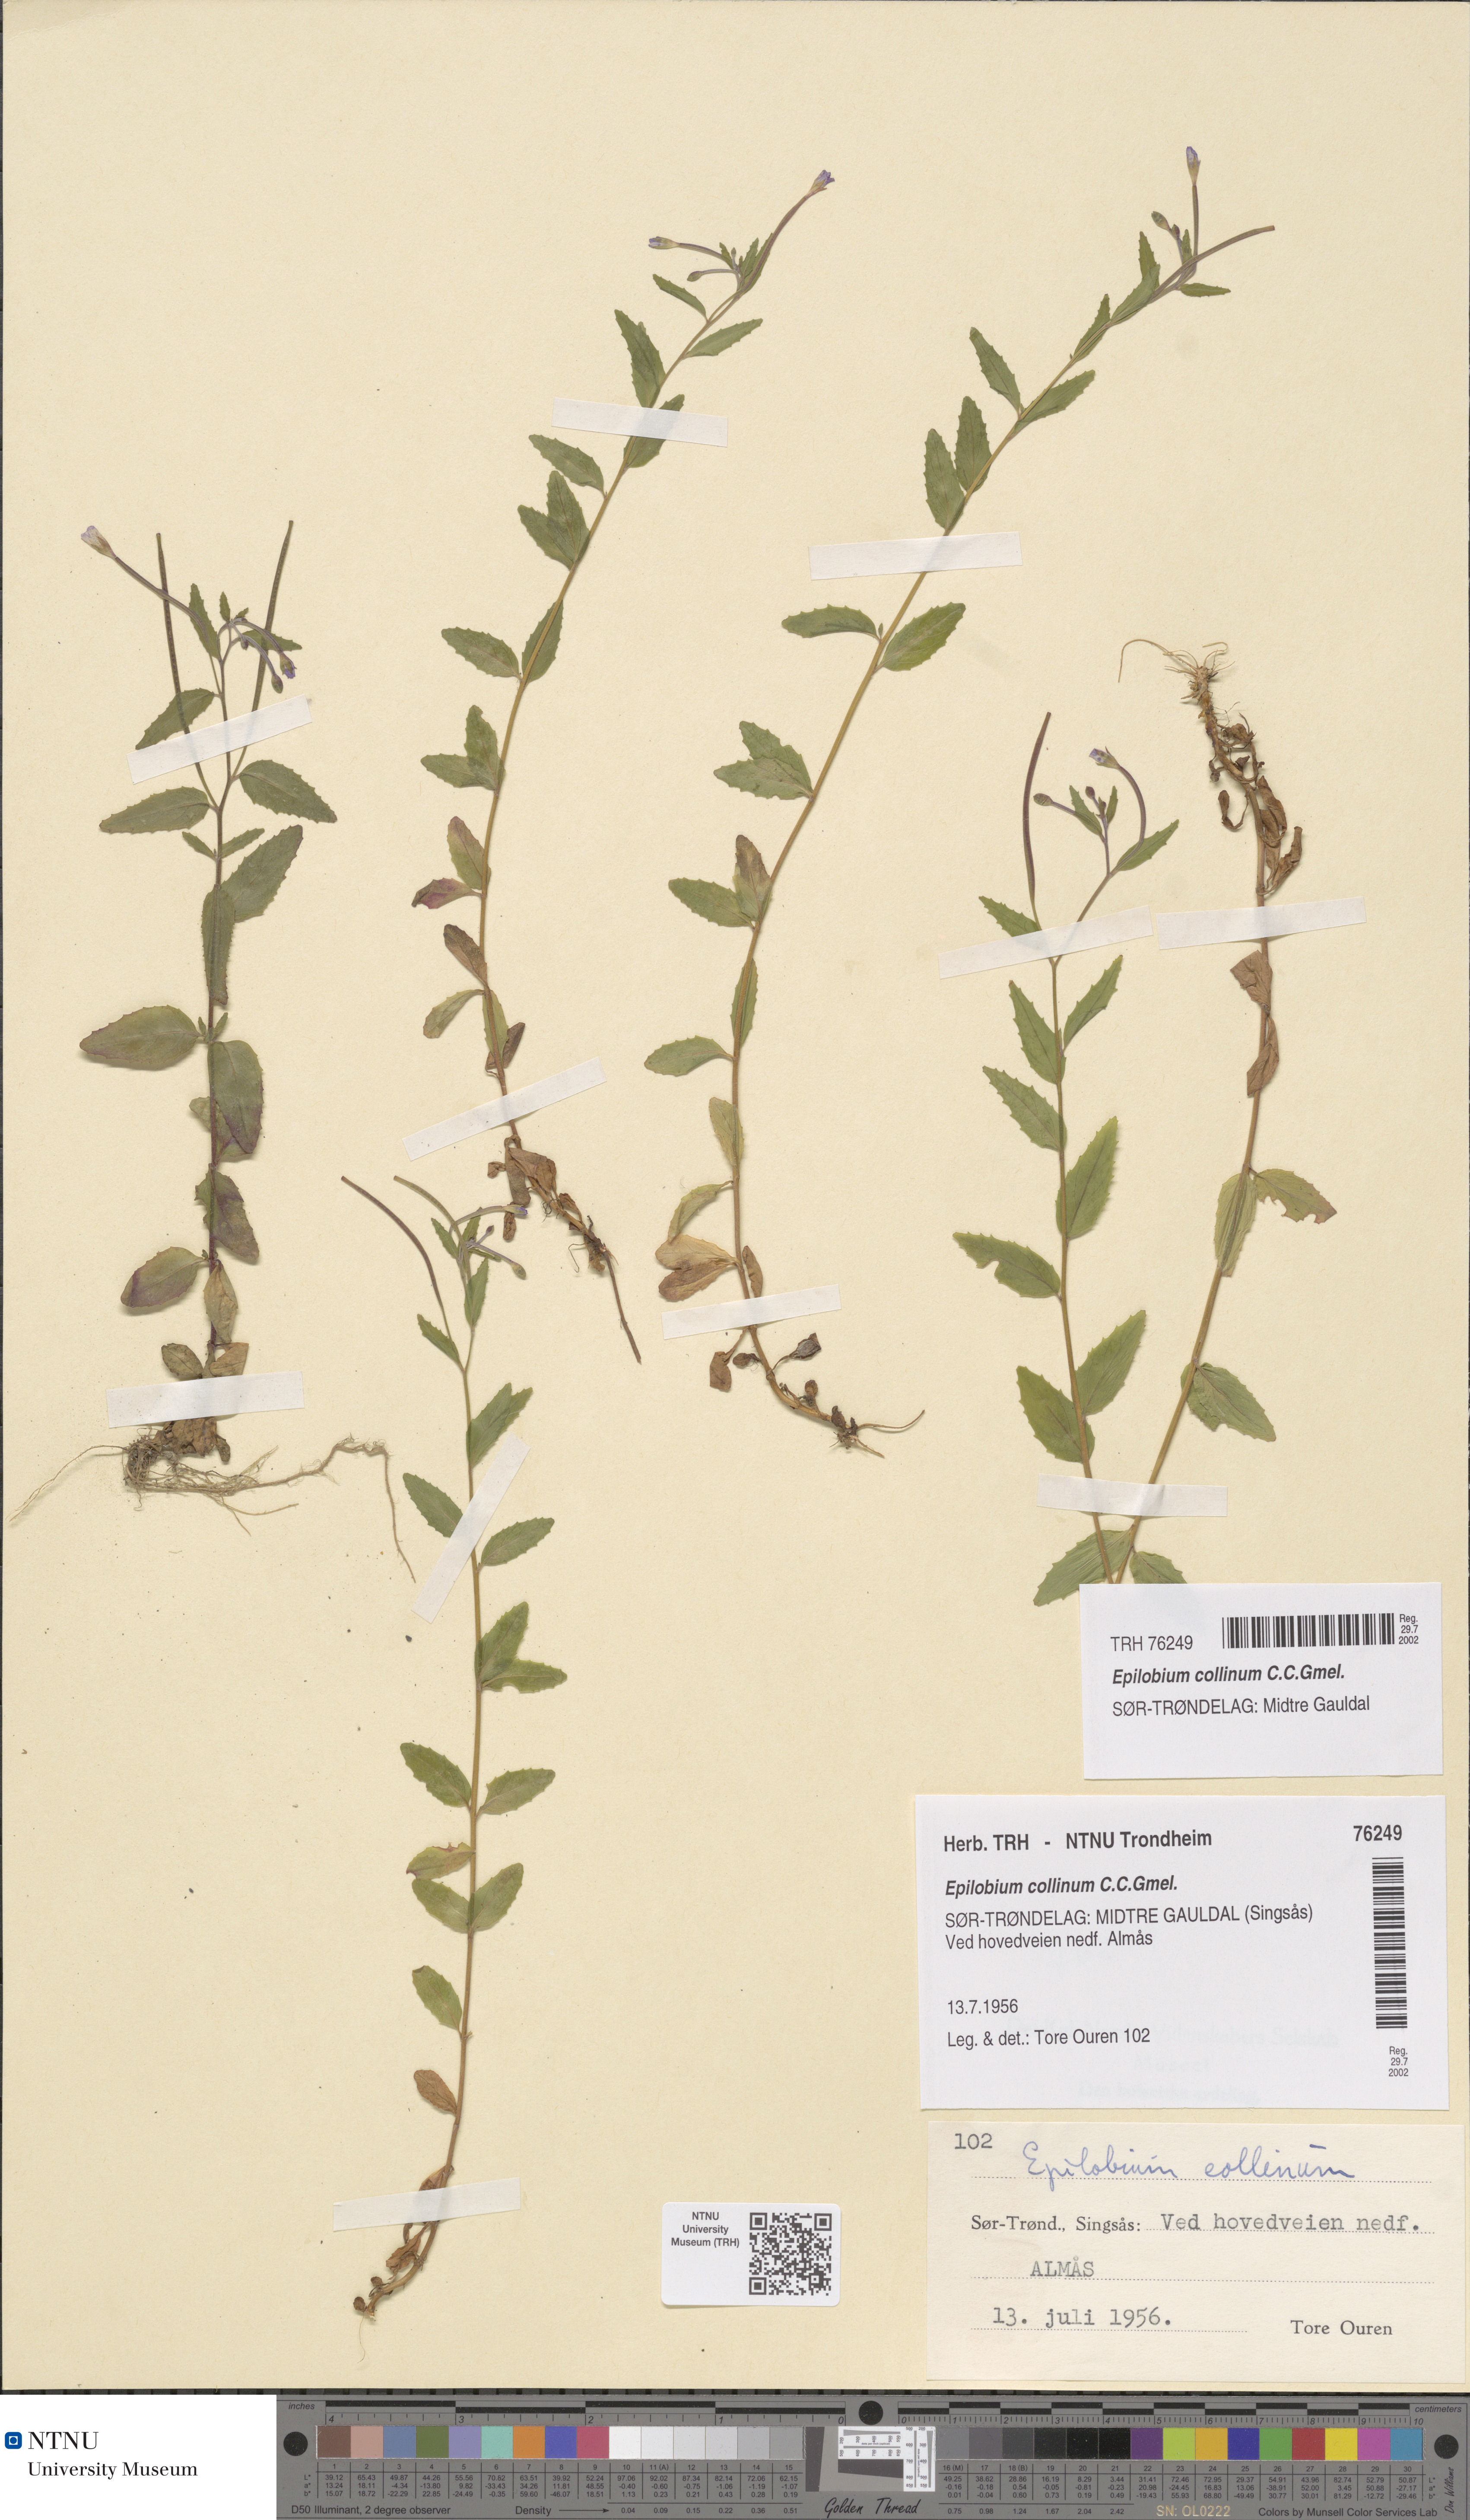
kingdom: Plantae
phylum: Tracheophyta
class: Magnoliopsida
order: Myrtales
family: Onagraceae
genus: Epilobium
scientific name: Epilobium collinum
